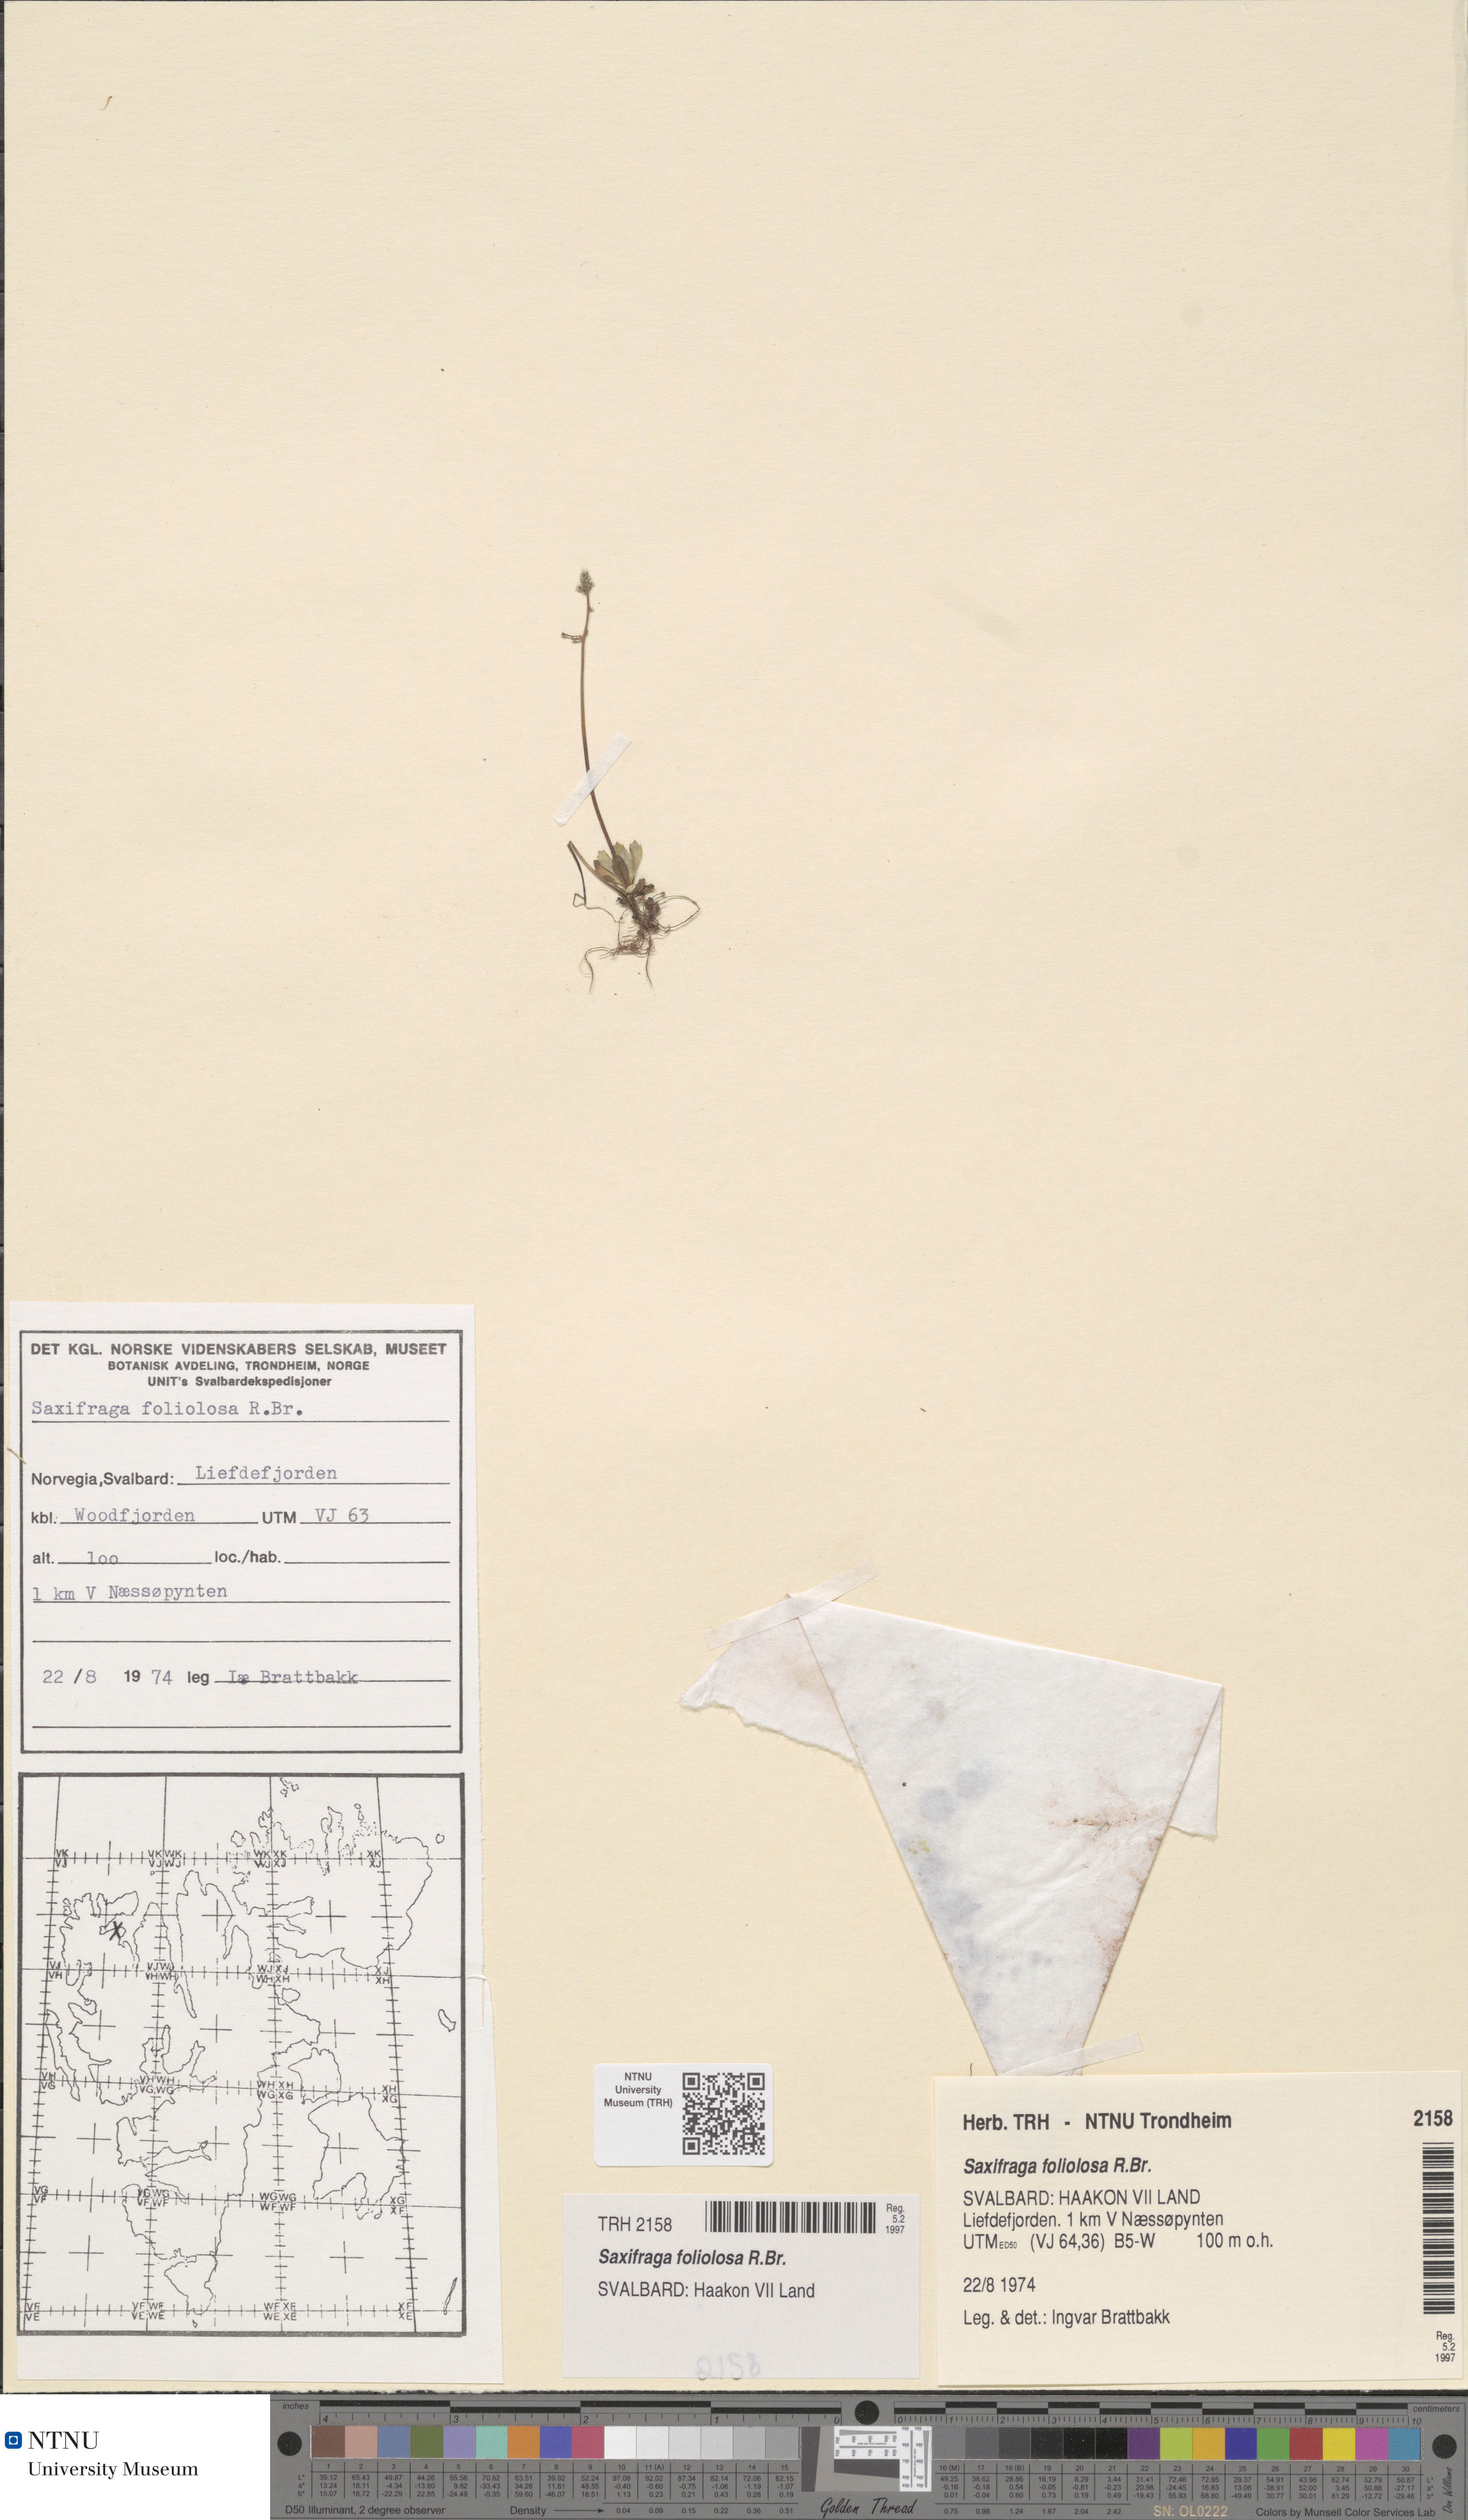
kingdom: Plantae
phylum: Tracheophyta
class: Magnoliopsida
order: Saxifragales
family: Saxifragaceae
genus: Micranthes
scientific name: Micranthes foliolosa
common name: Leafystem saxifrage
